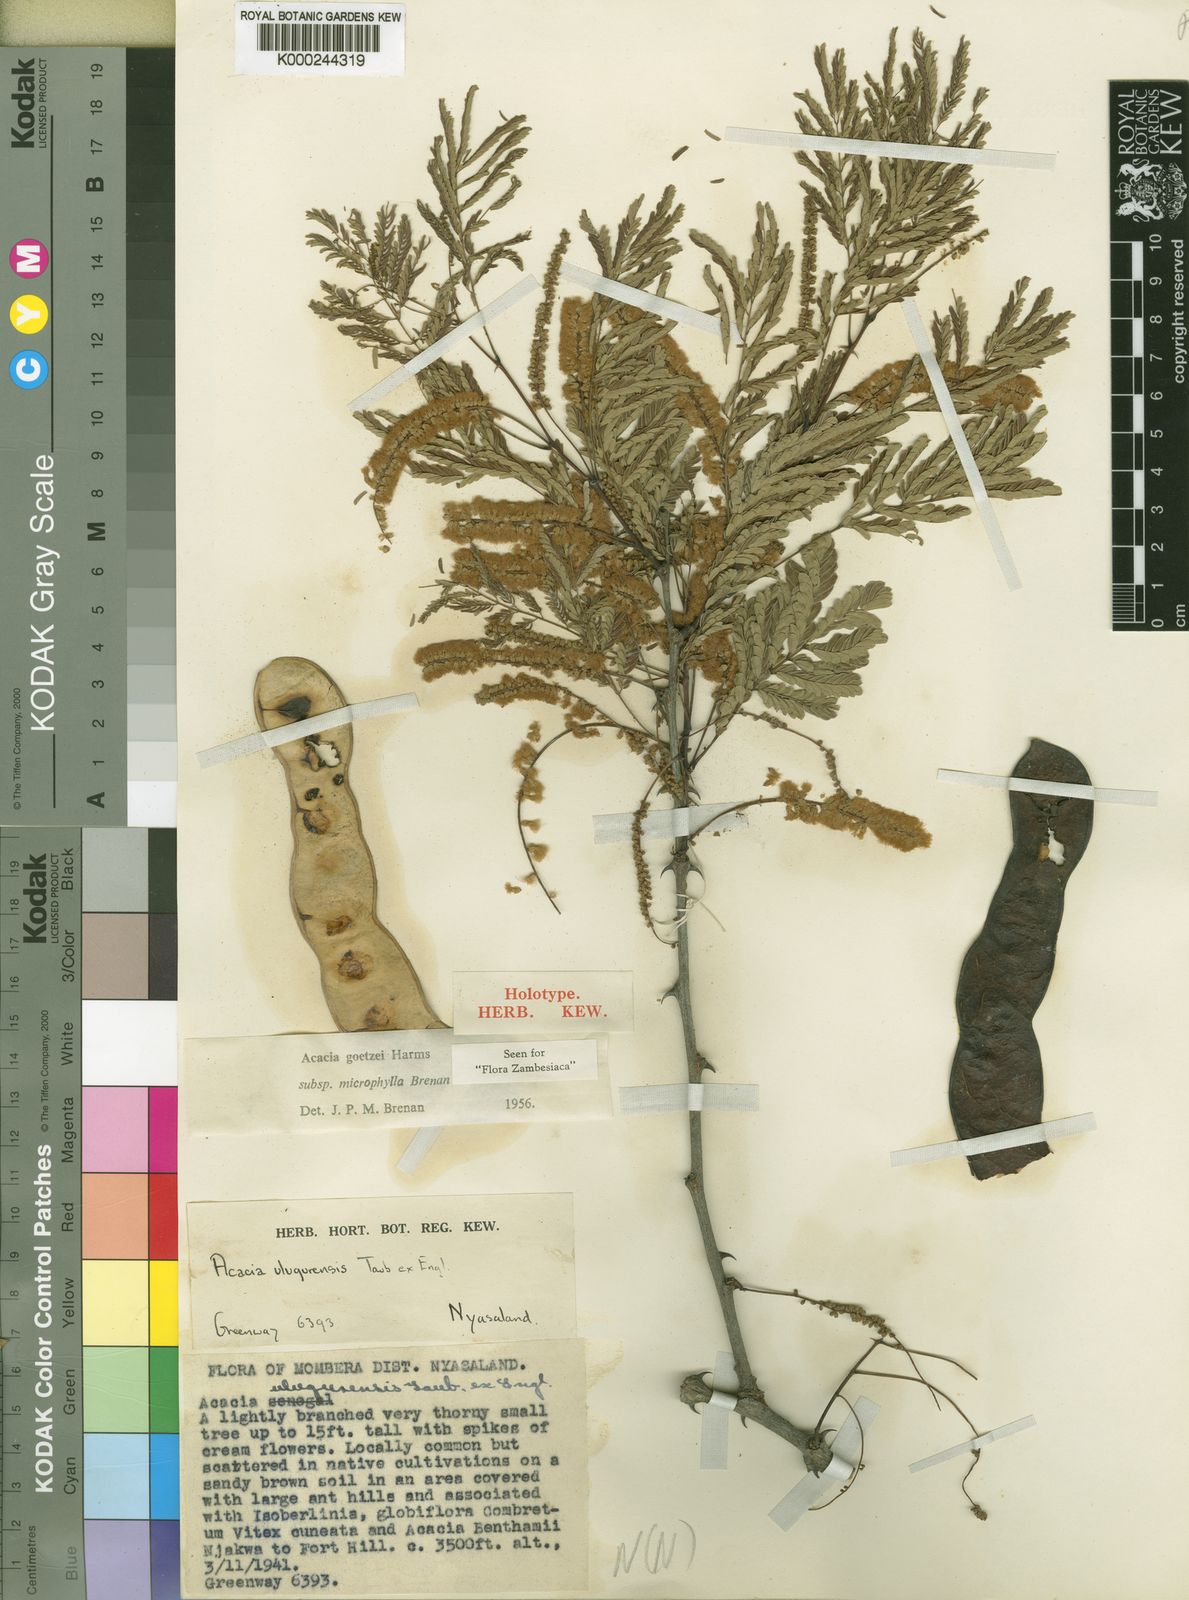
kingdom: Plantae
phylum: Tracheophyta
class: Magnoliopsida
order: Fabales
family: Fabaceae
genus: Senegalia
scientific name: Senegalia goetzei
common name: Purplepod acacia
